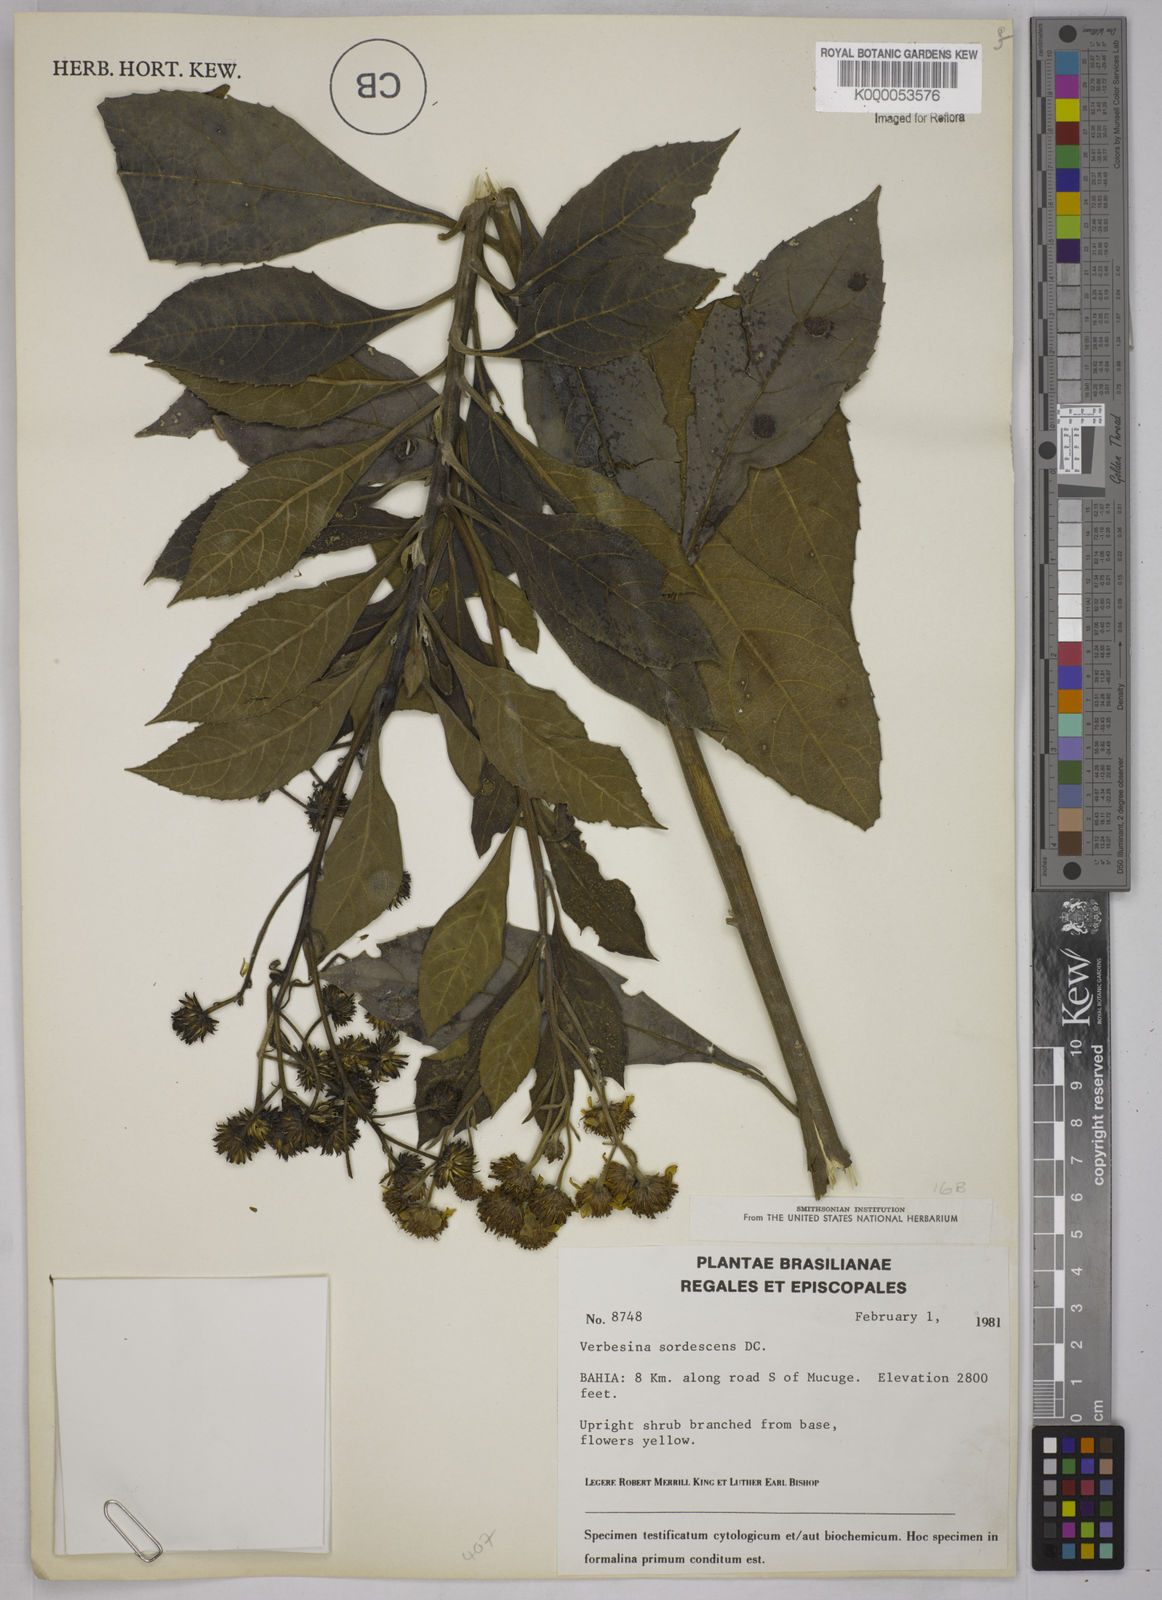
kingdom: Plantae
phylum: Tracheophyta
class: Magnoliopsida
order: Asterales
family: Asteraceae
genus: Verbesina
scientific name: Verbesina sordescens
